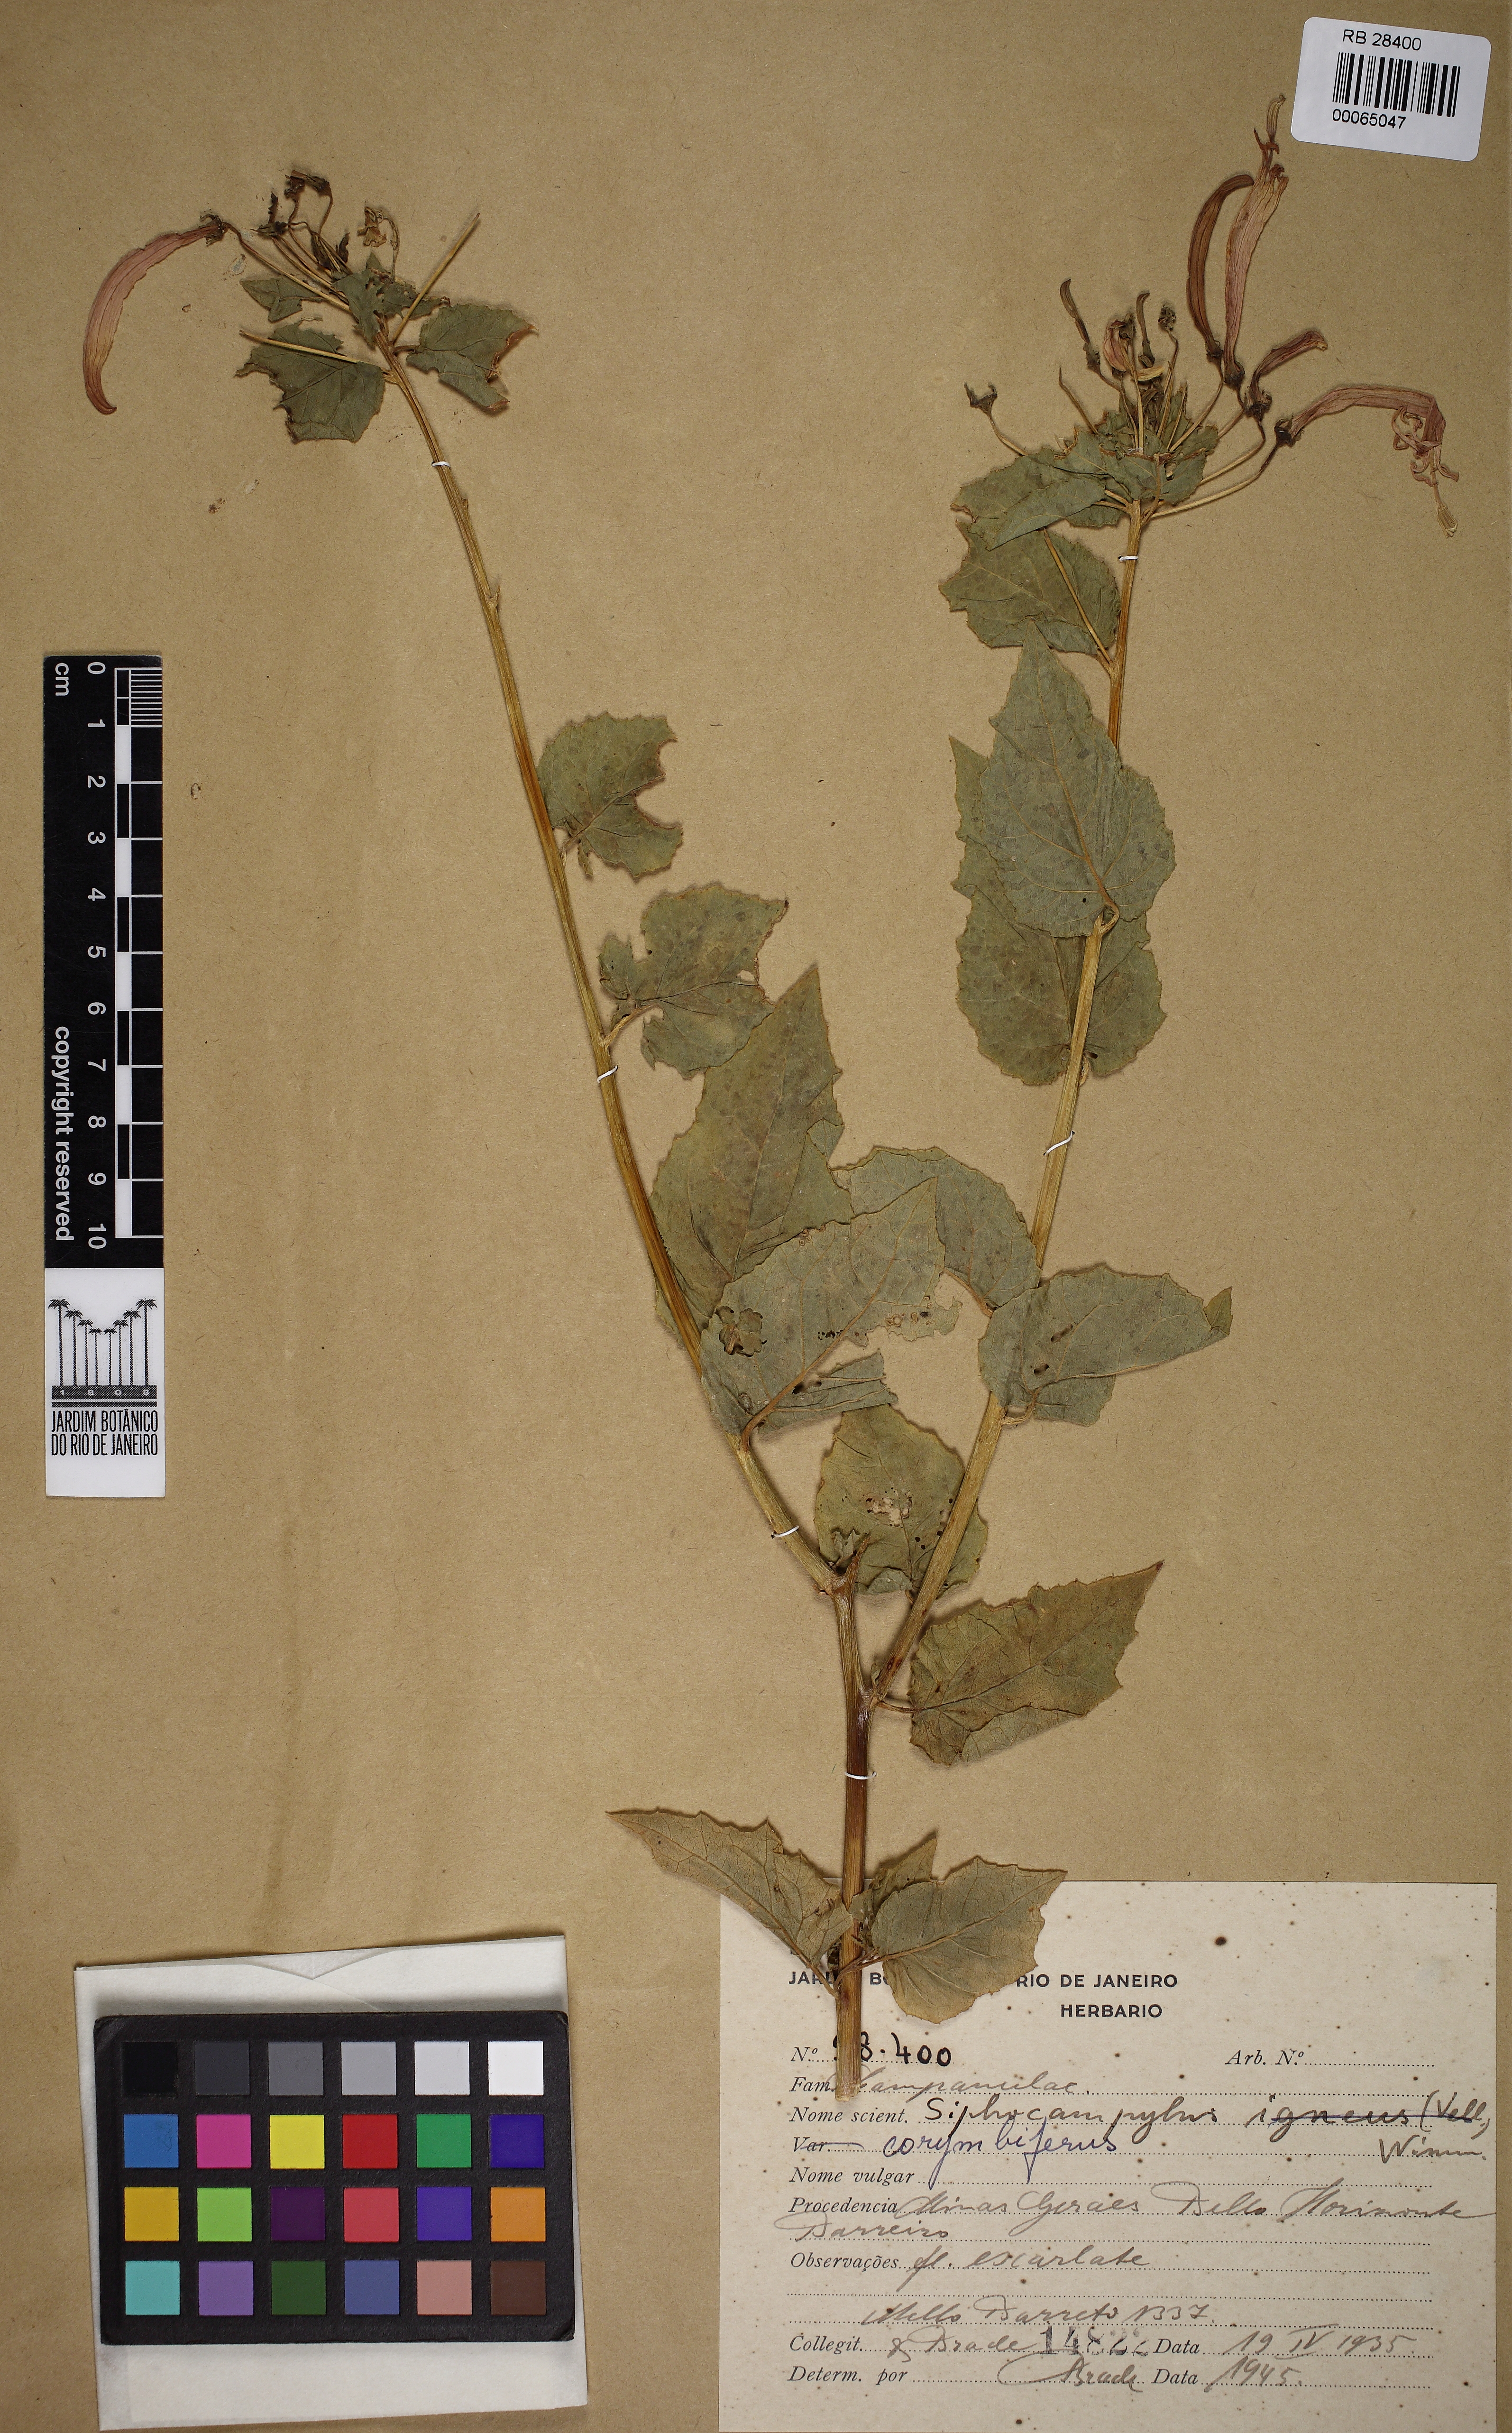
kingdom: Plantae
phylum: Tracheophyta
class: Magnoliopsida
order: Asterales
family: Campanulaceae
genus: Siphocampylus
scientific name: Siphocampylus corymbiferus
